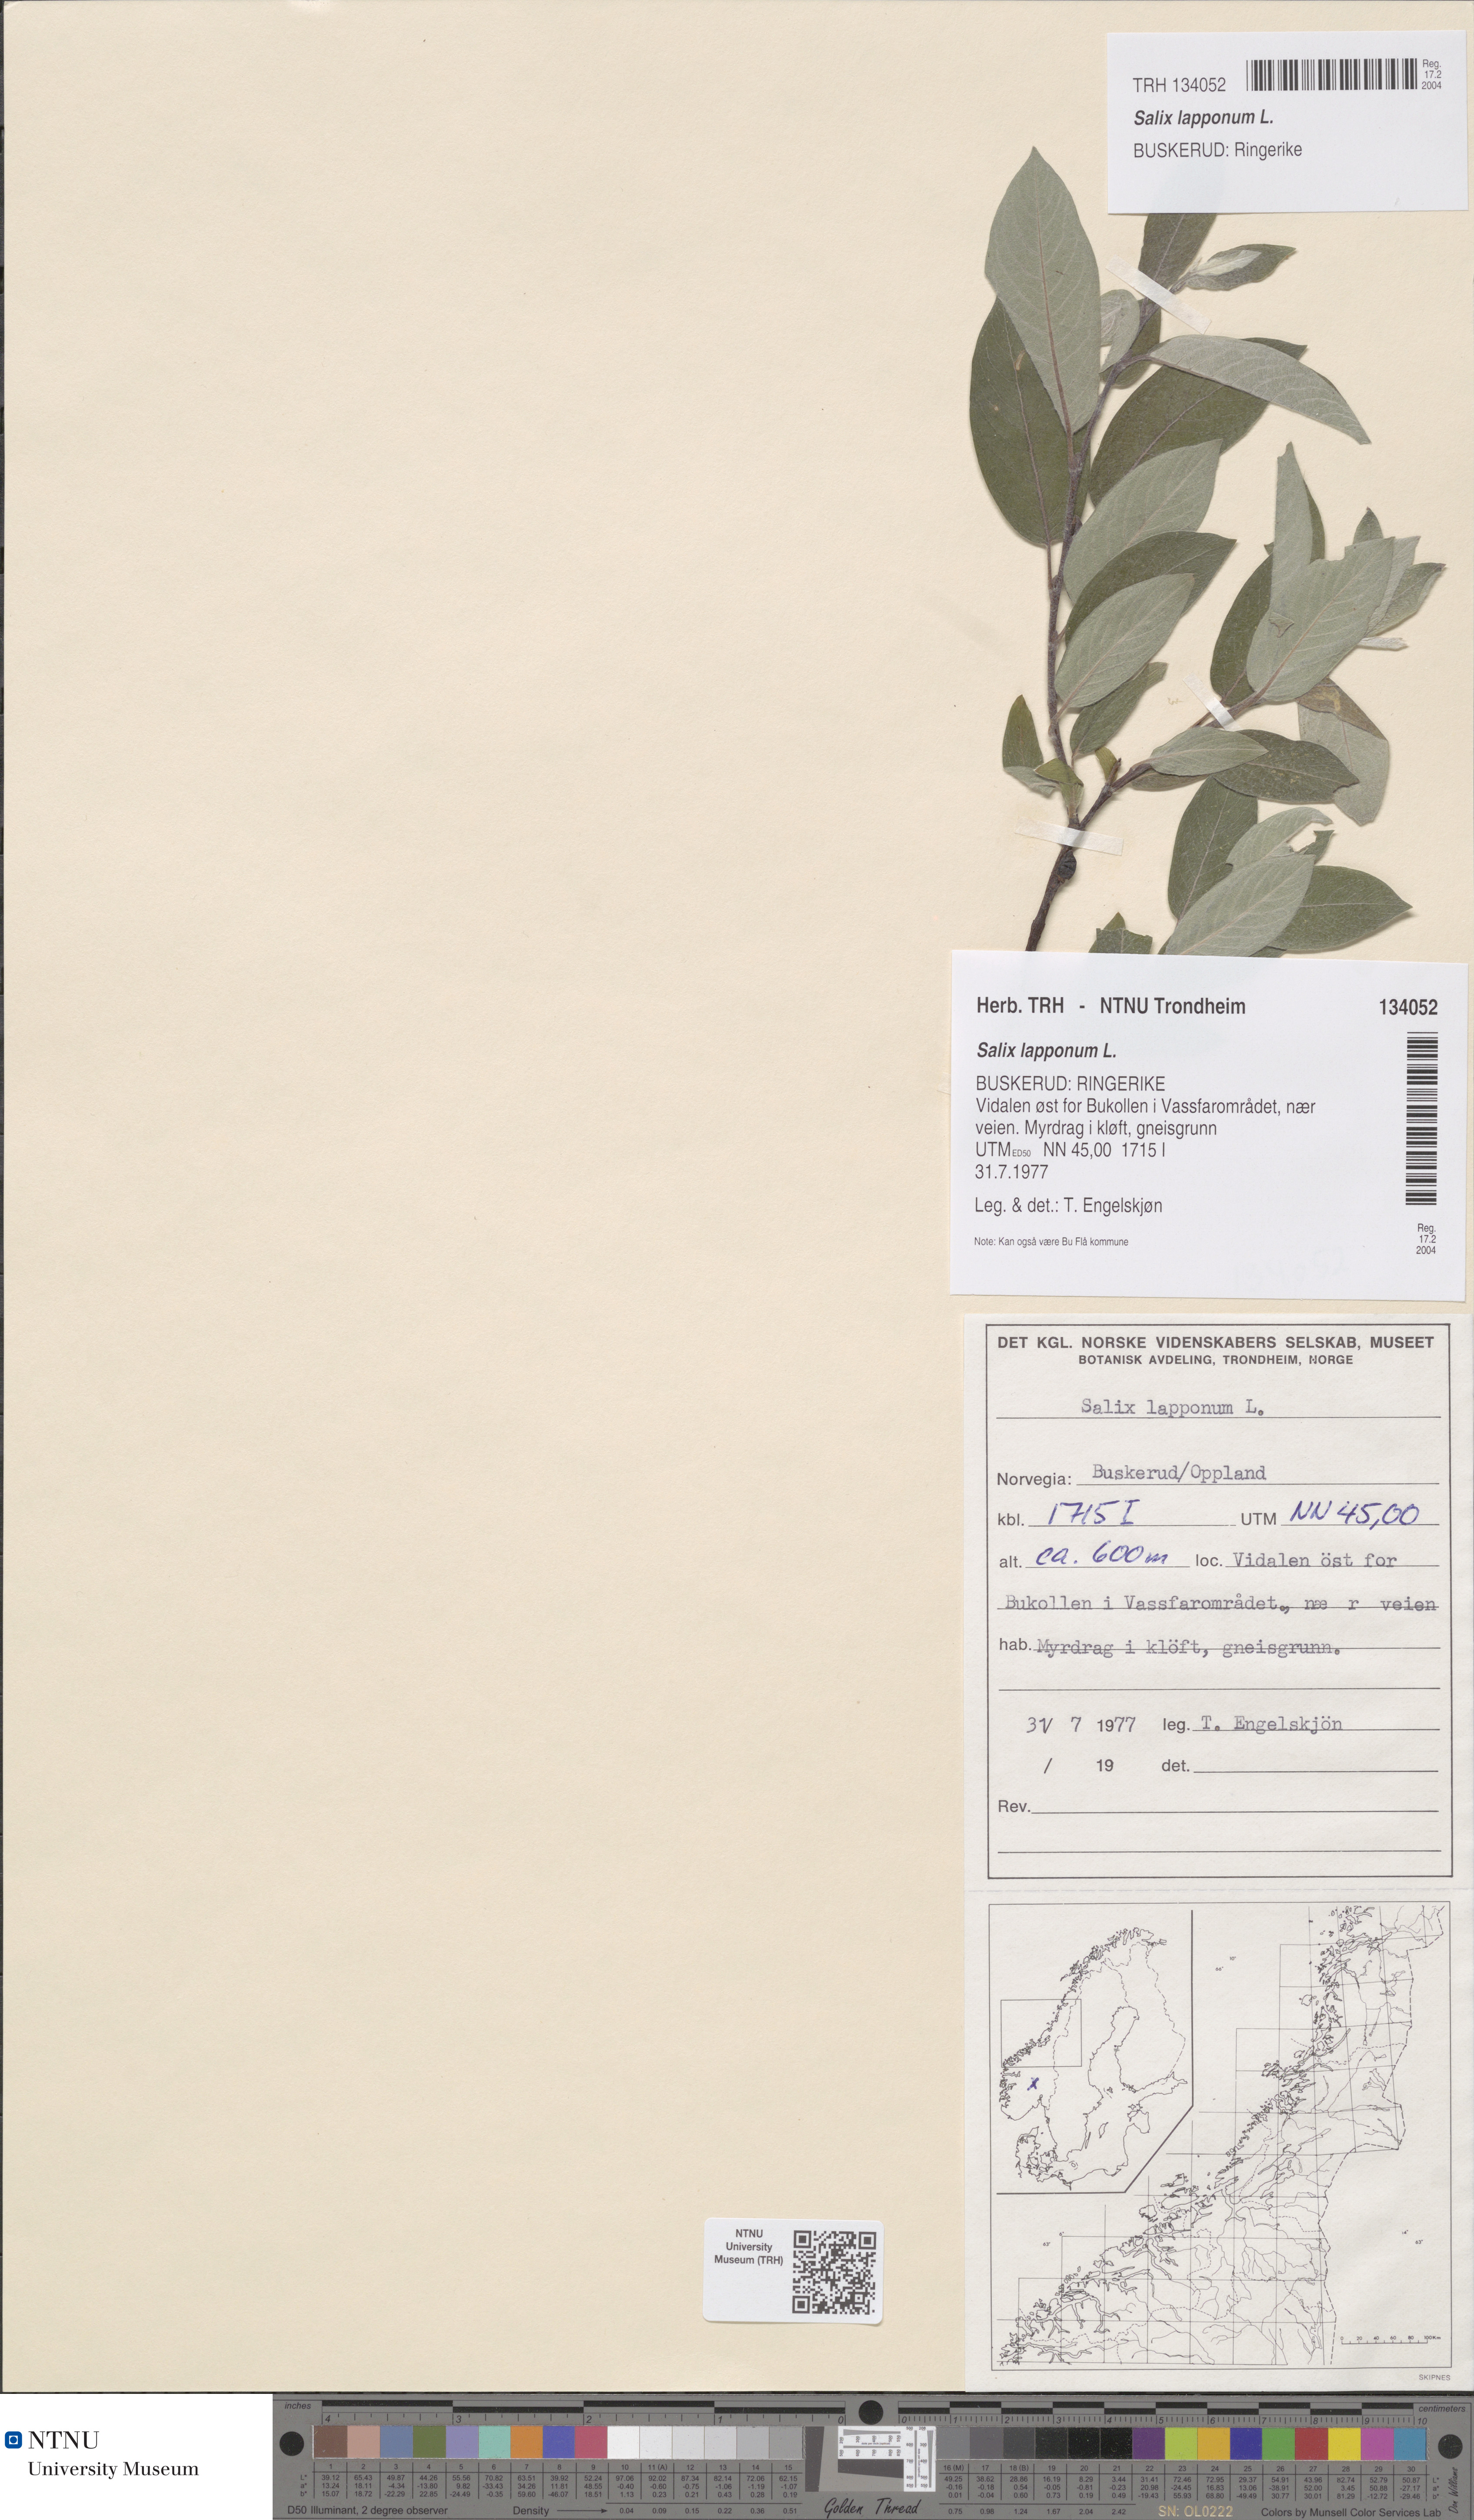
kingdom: Plantae
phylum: Tracheophyta
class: Magnoliopsida
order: Malpighiales
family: Salicaceae
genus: Salix
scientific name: Salix lapponum
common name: Downy willow
